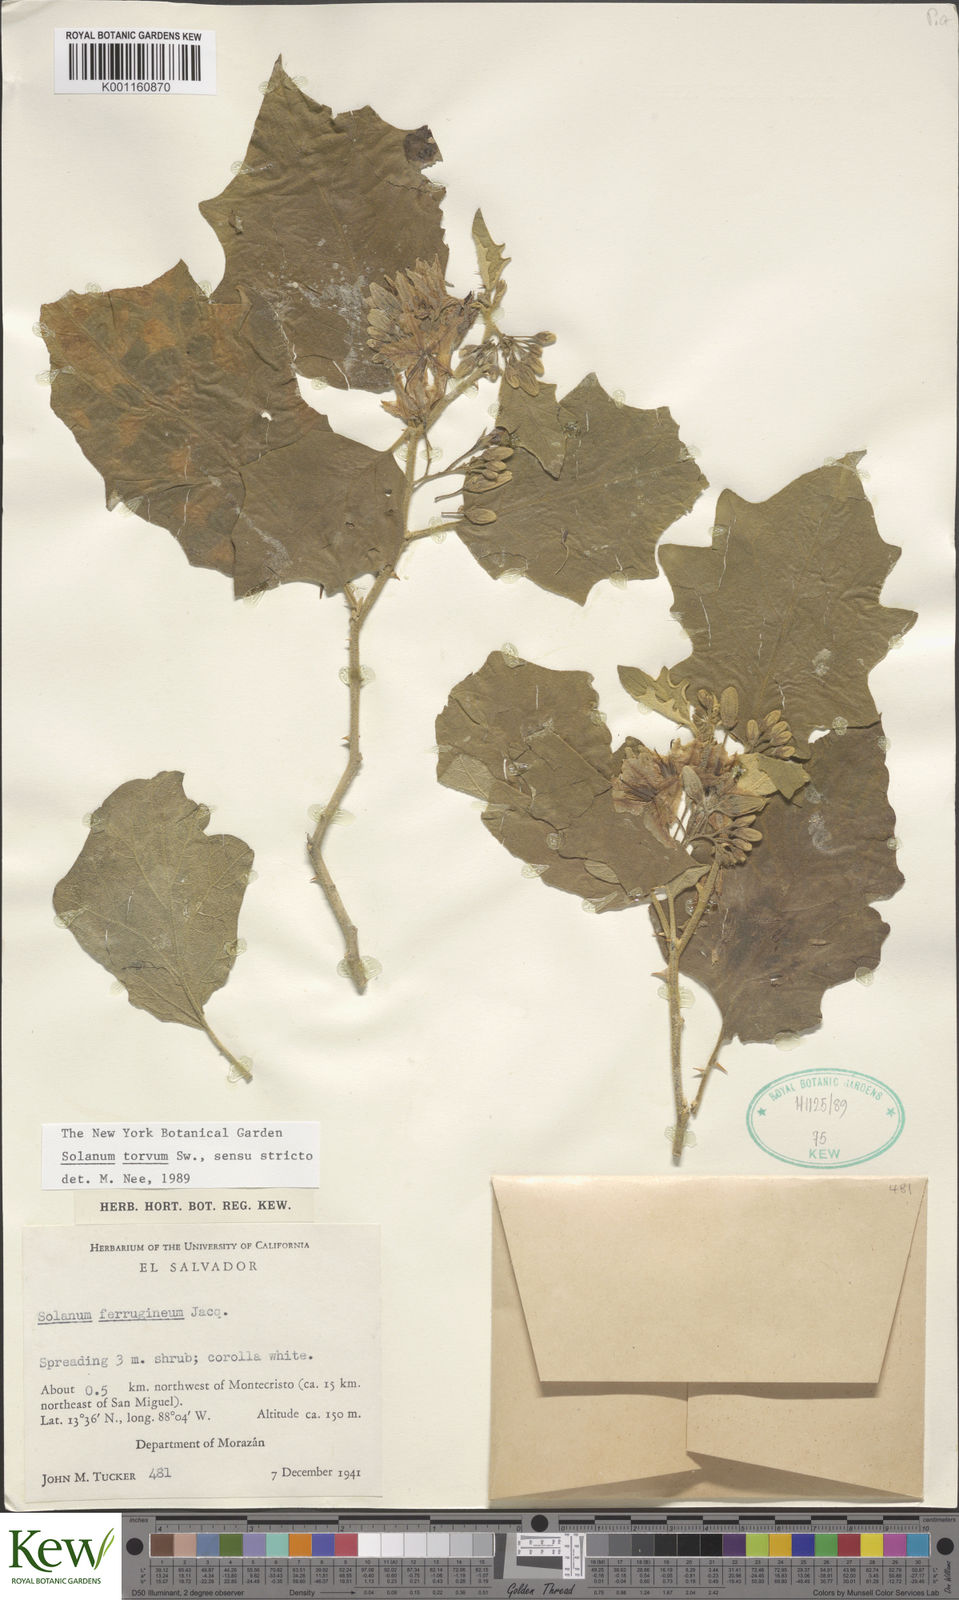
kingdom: Plantae
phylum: Tracheophyta
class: Magnoliopsida
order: Solanales
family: Solanaceae
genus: Solanum
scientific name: Solanum torvum
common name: Turkey berry
